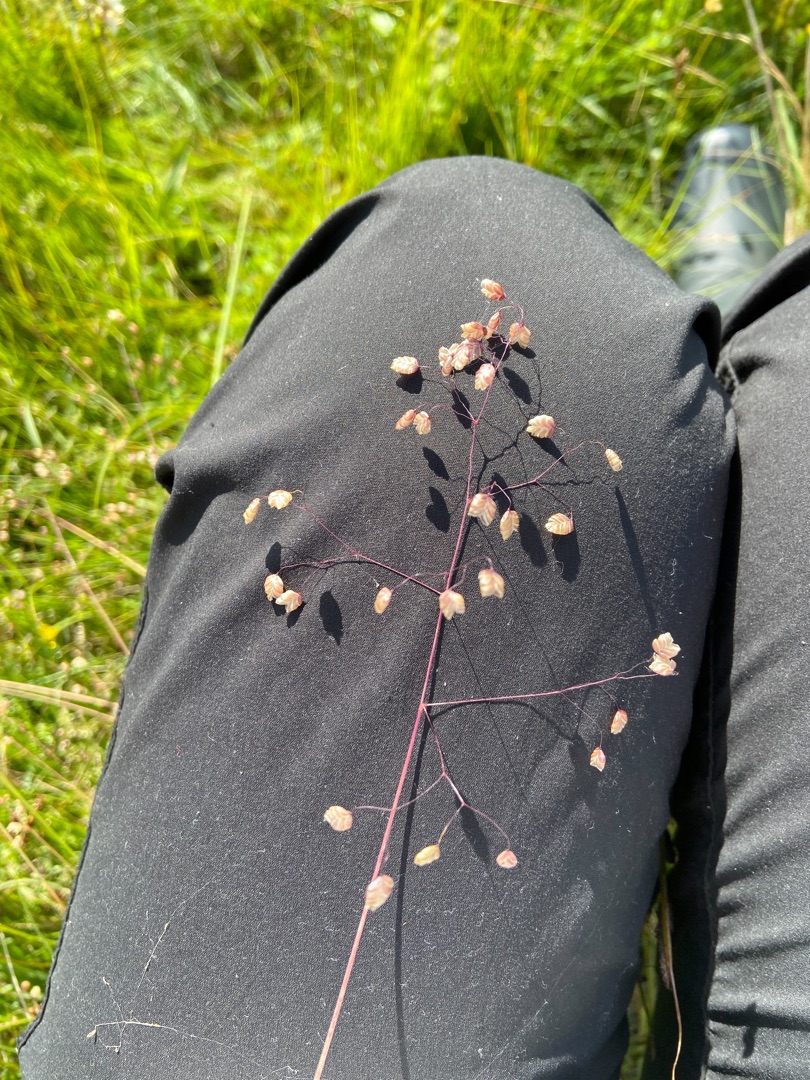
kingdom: Plantae
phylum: Tracheophyta
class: Liliopsida
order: Poales
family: Poaceae
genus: Briza
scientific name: Briza media
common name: Hjertegræs
